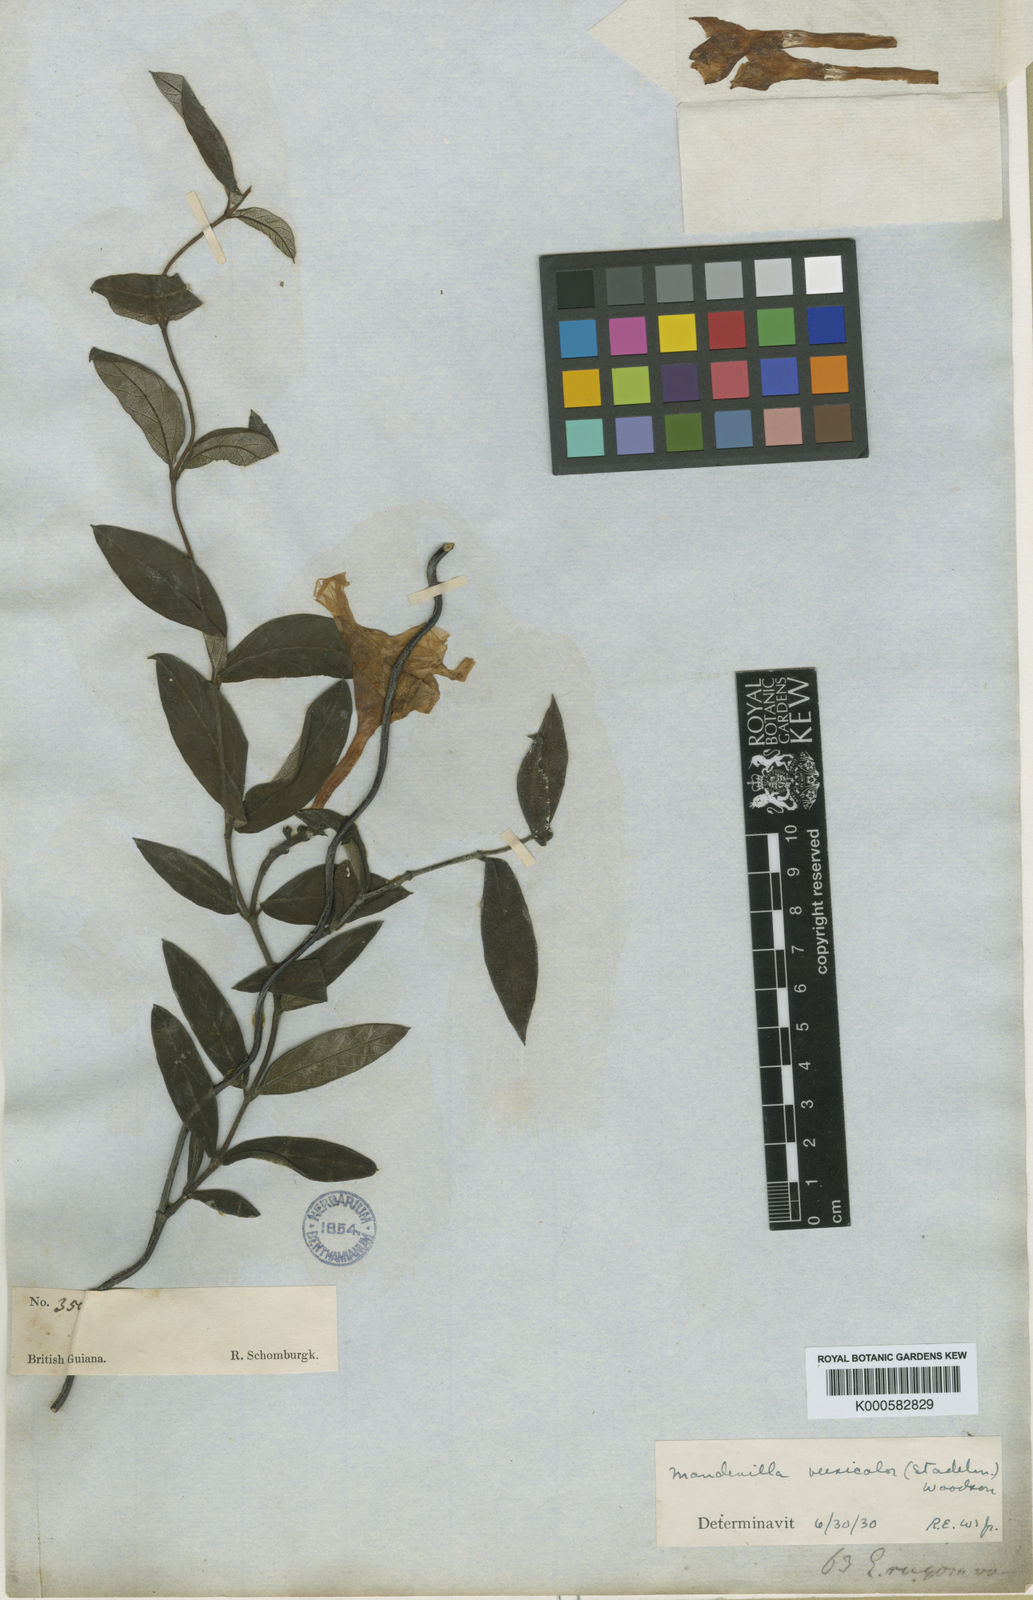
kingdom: Plantae
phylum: Tracheophyta
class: Magnoliopsida
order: Gentianales
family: Apocynaceae
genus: Mandevilla
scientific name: Mandevilla scabra
